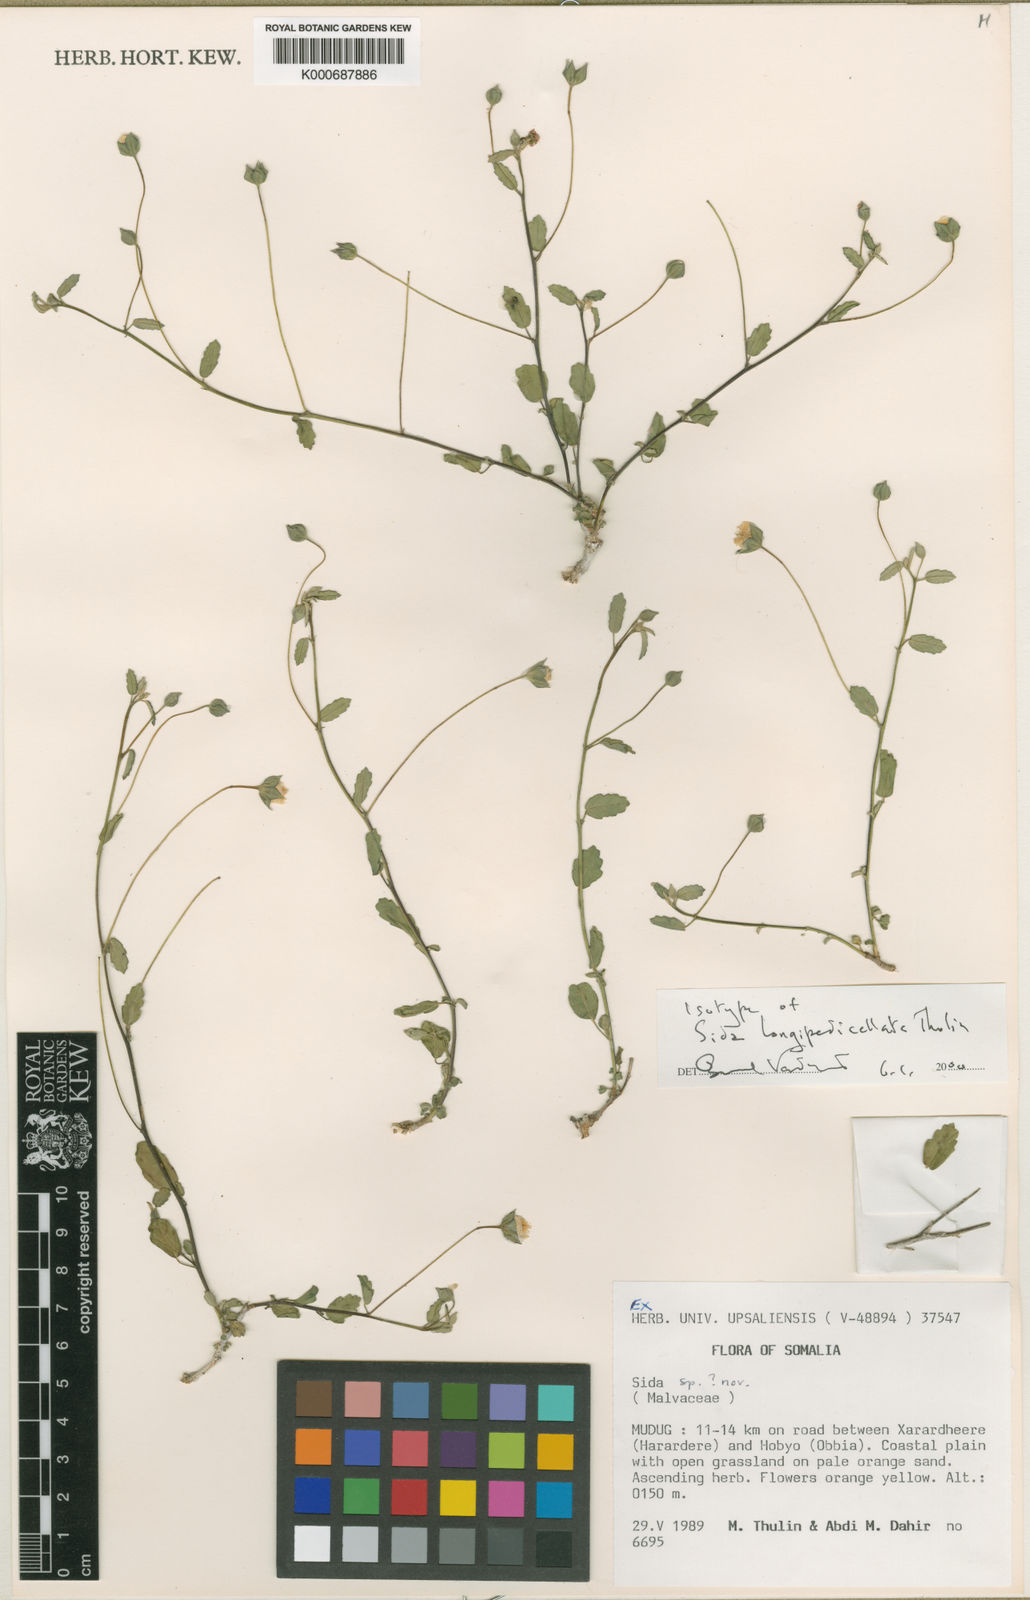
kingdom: Plantae
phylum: Tracheophyta
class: Magnoliopsida
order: Malvales
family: Malvaceae
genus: Sida
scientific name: Sida longipedicellata
